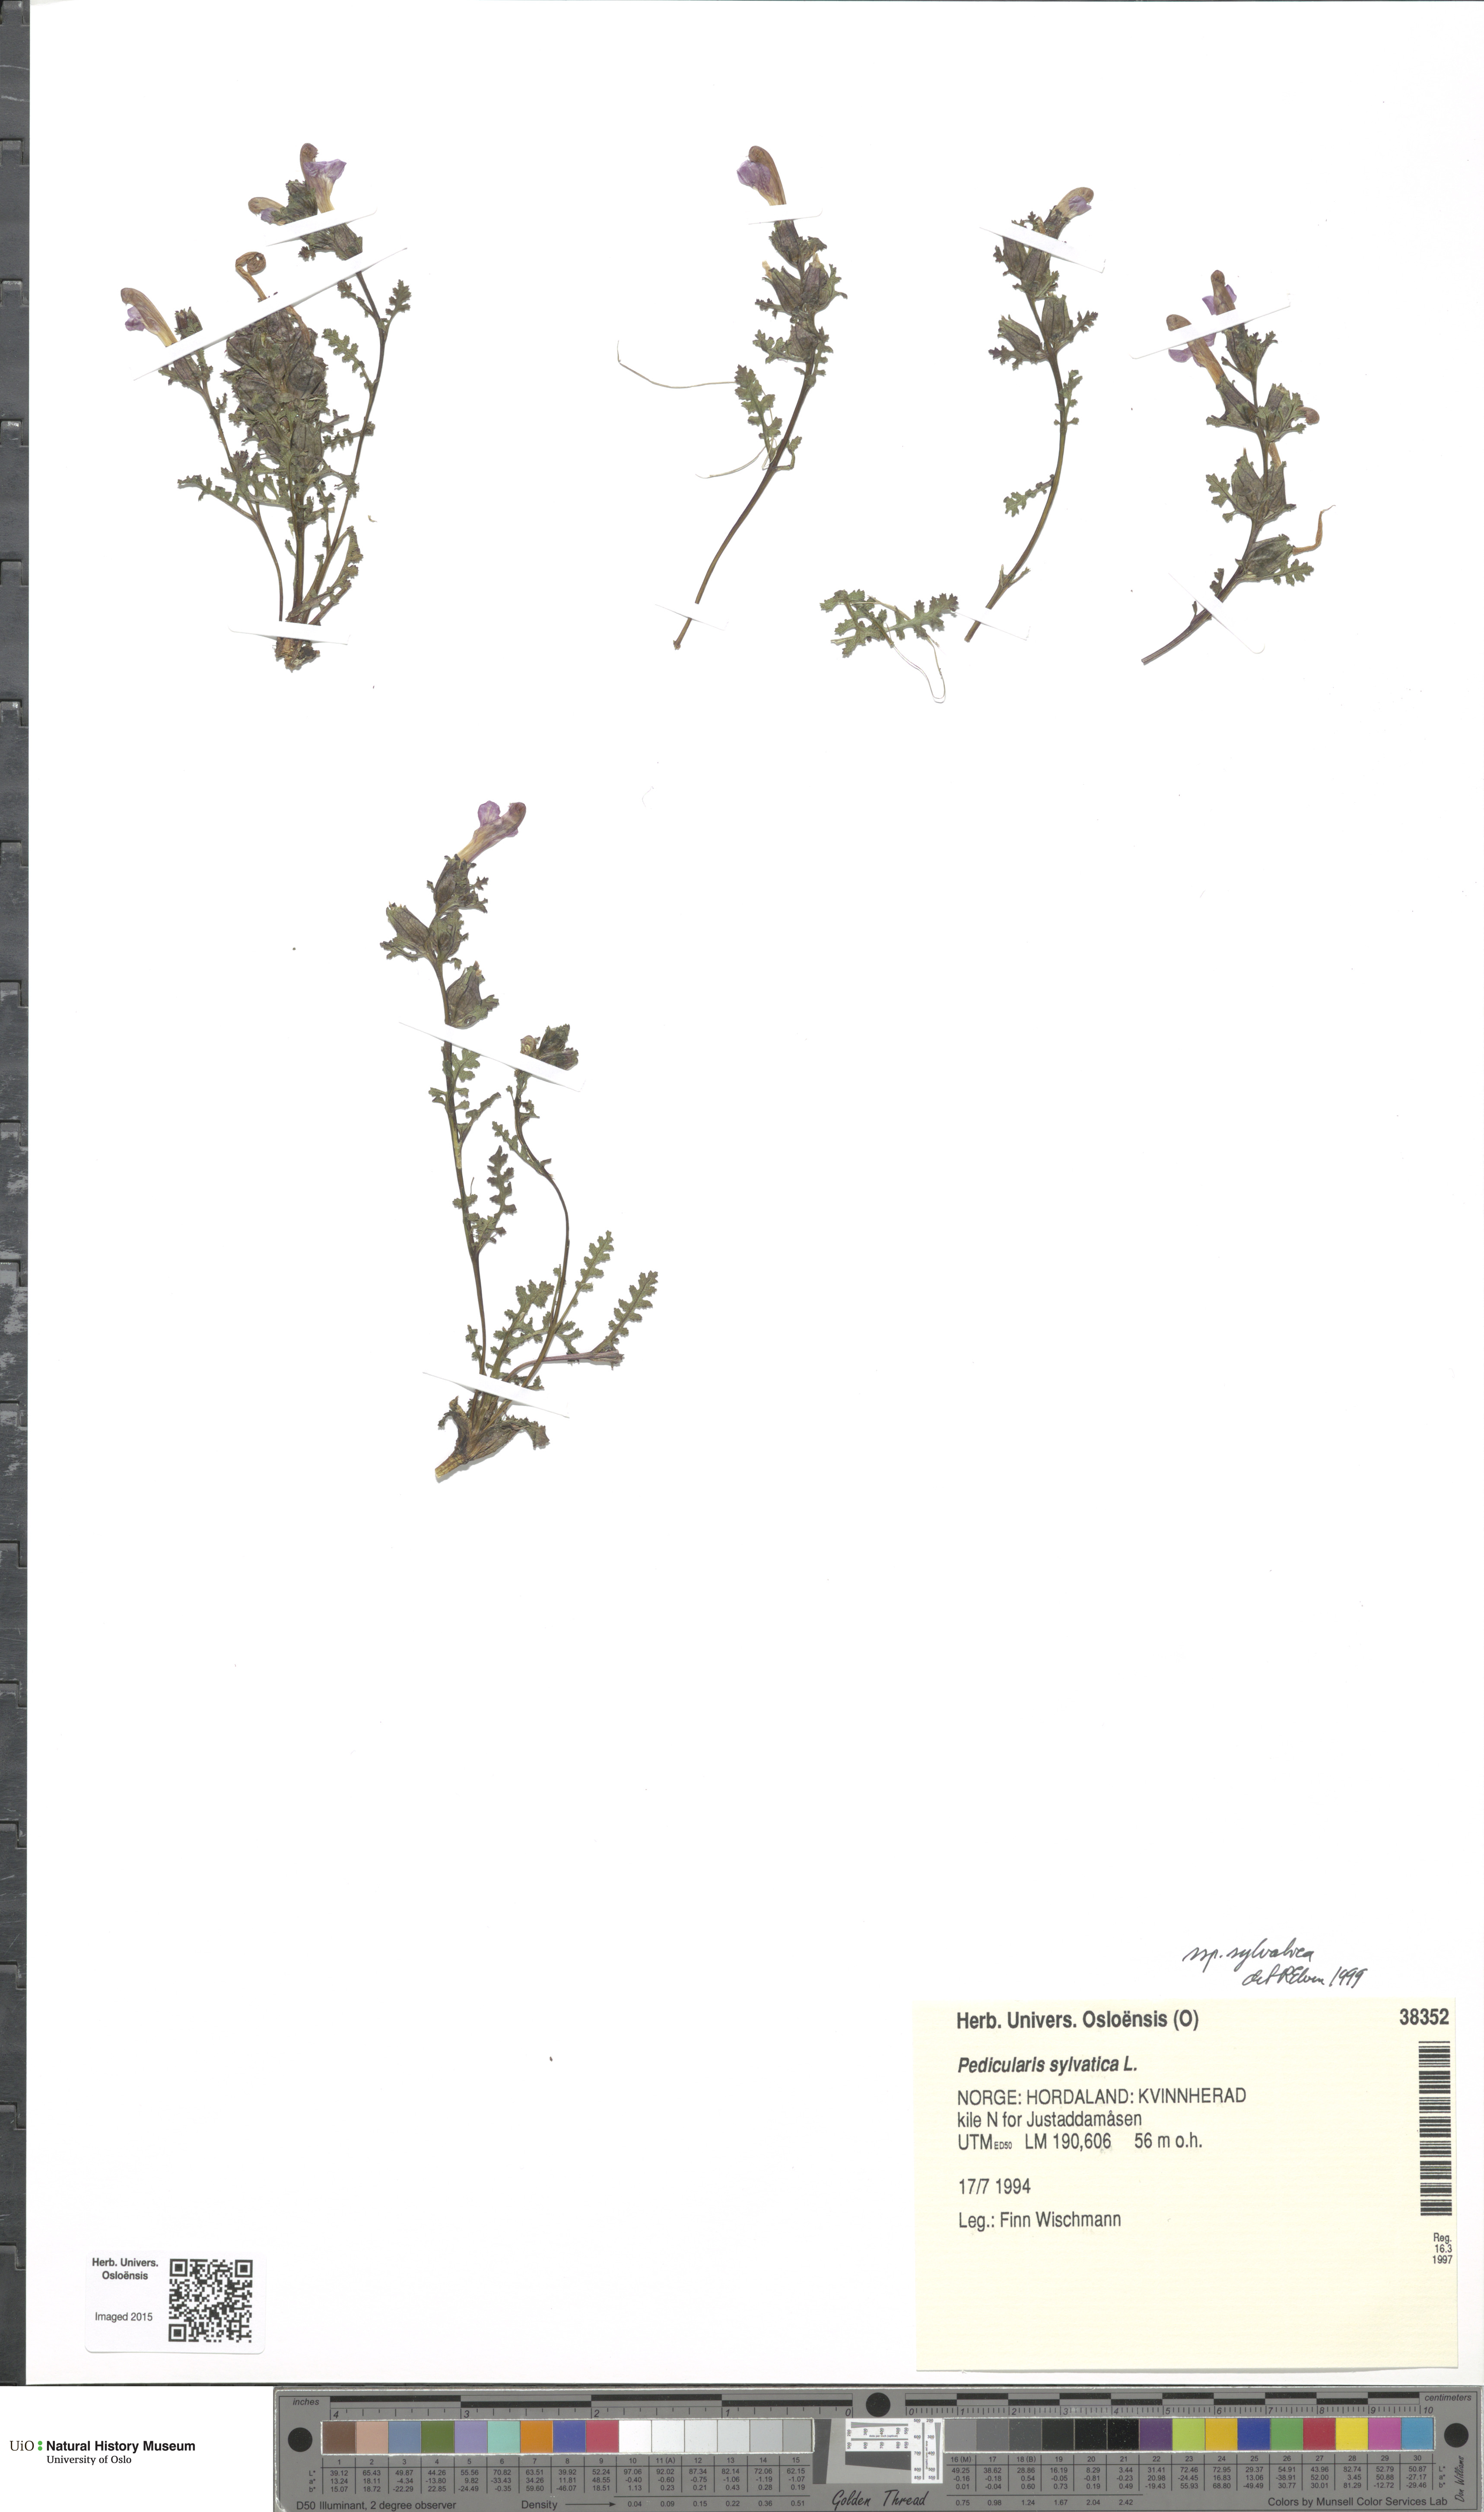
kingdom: Plantae
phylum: Tracheophyta
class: Magnoliopsida
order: Lamiales
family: Orobanchaceae
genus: Pedicularis
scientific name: Pedicularis sylvatica
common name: Lousewort
